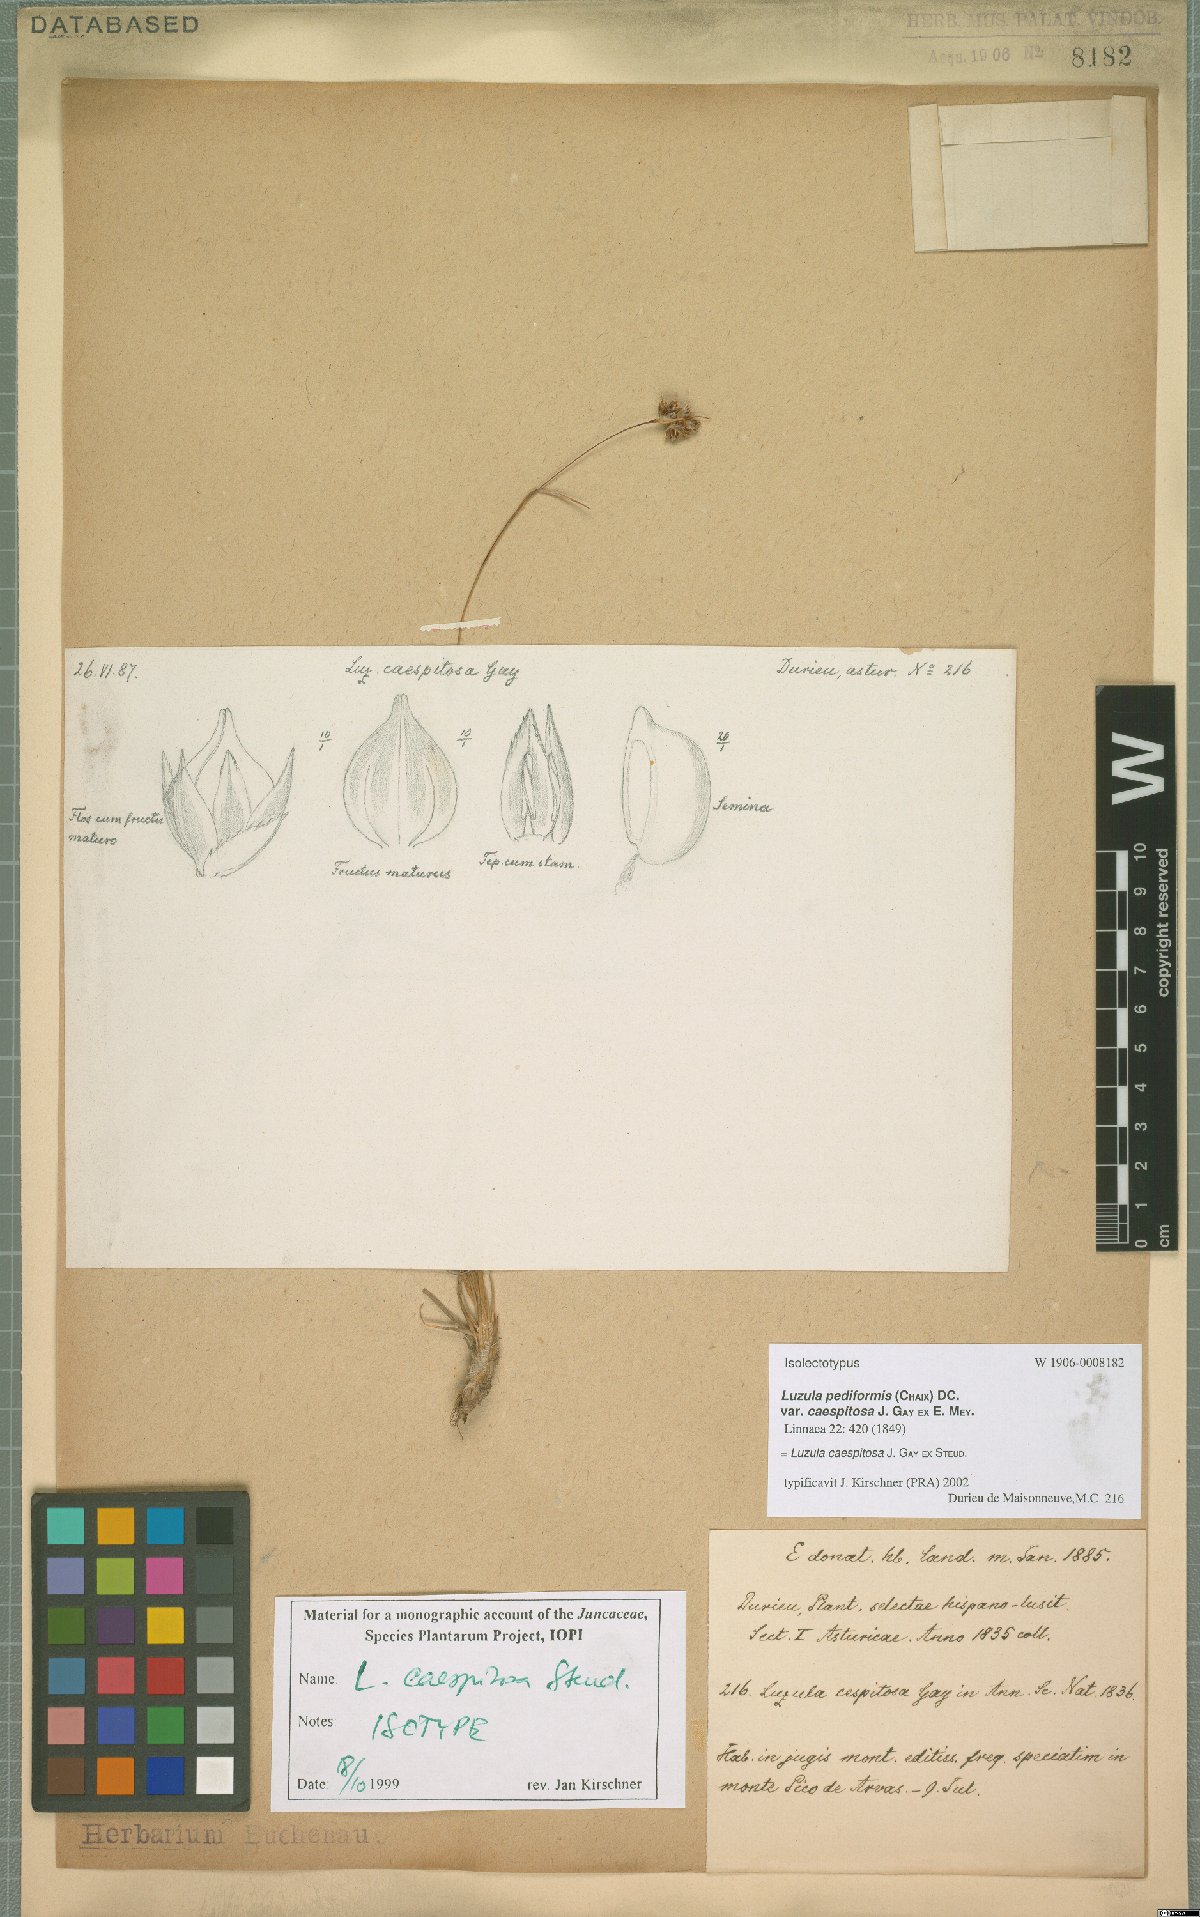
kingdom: Plantae
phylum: Tracheophyta
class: Liliopsida
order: Poales
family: Juncaceae
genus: Luzula
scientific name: Luzula caespitosa
